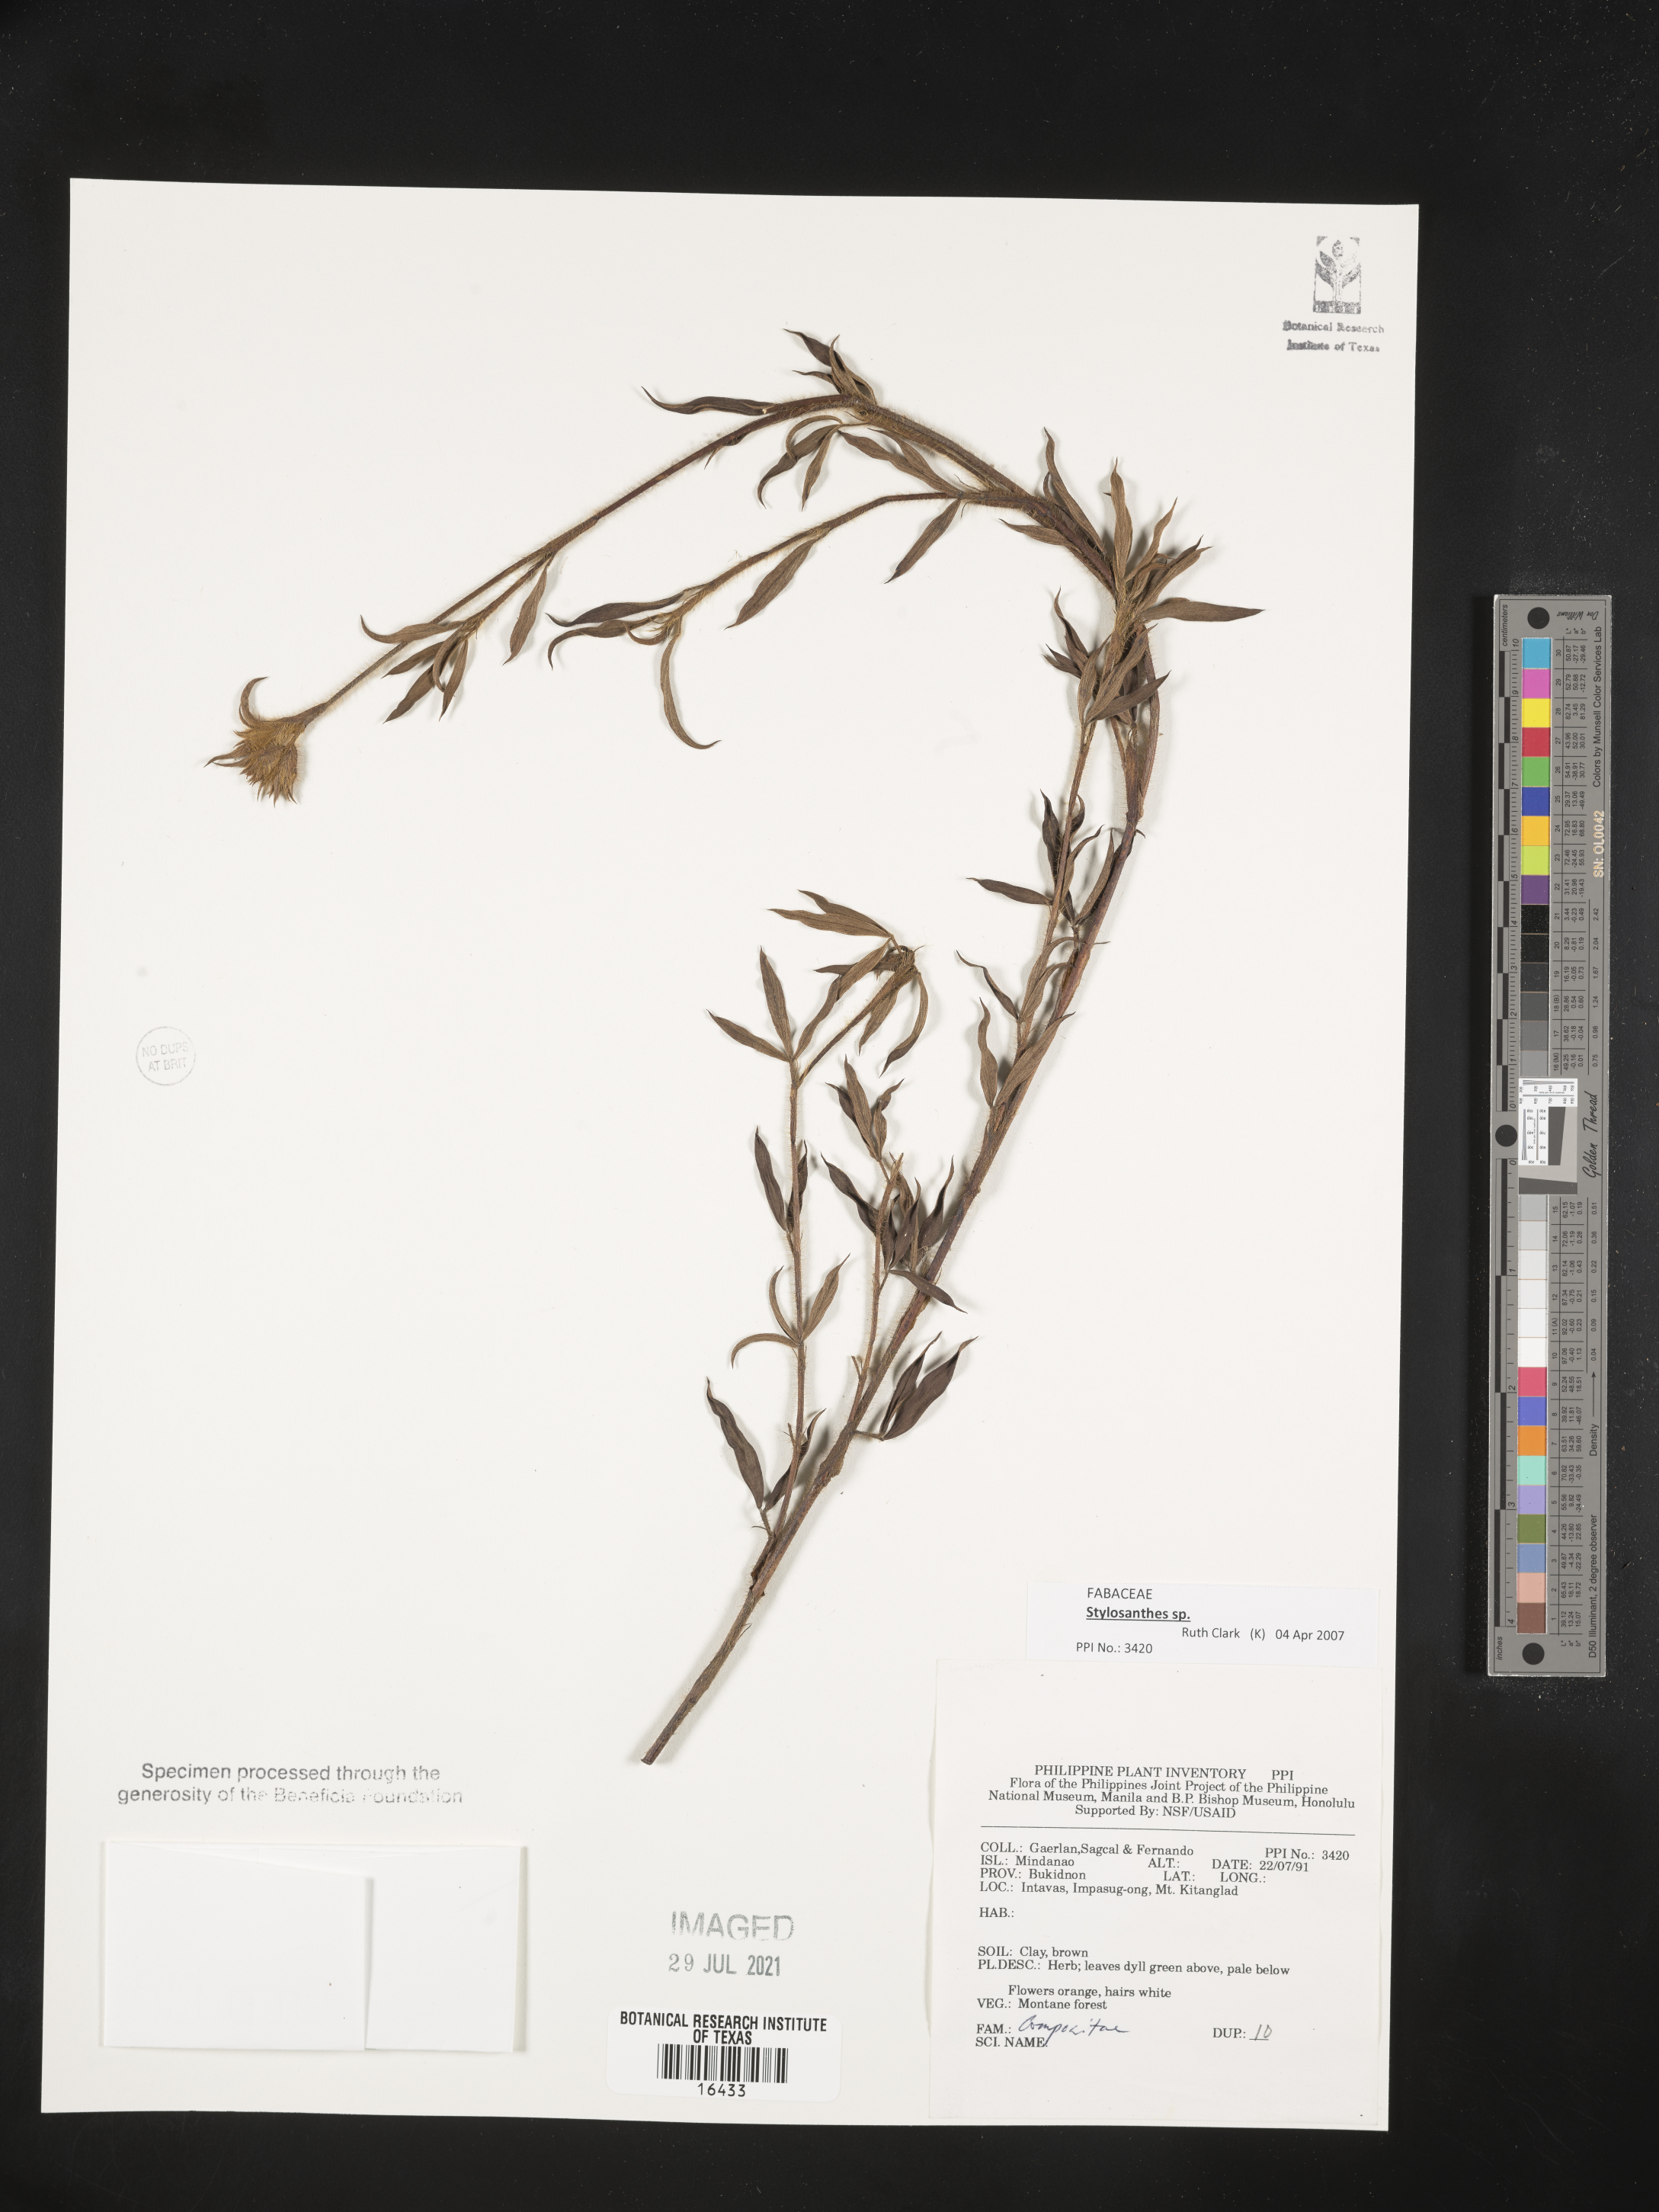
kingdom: Plantae
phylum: Tracheophyta
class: Magnoliopsida
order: Asterales
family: Asteraceae
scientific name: Asteraceae
